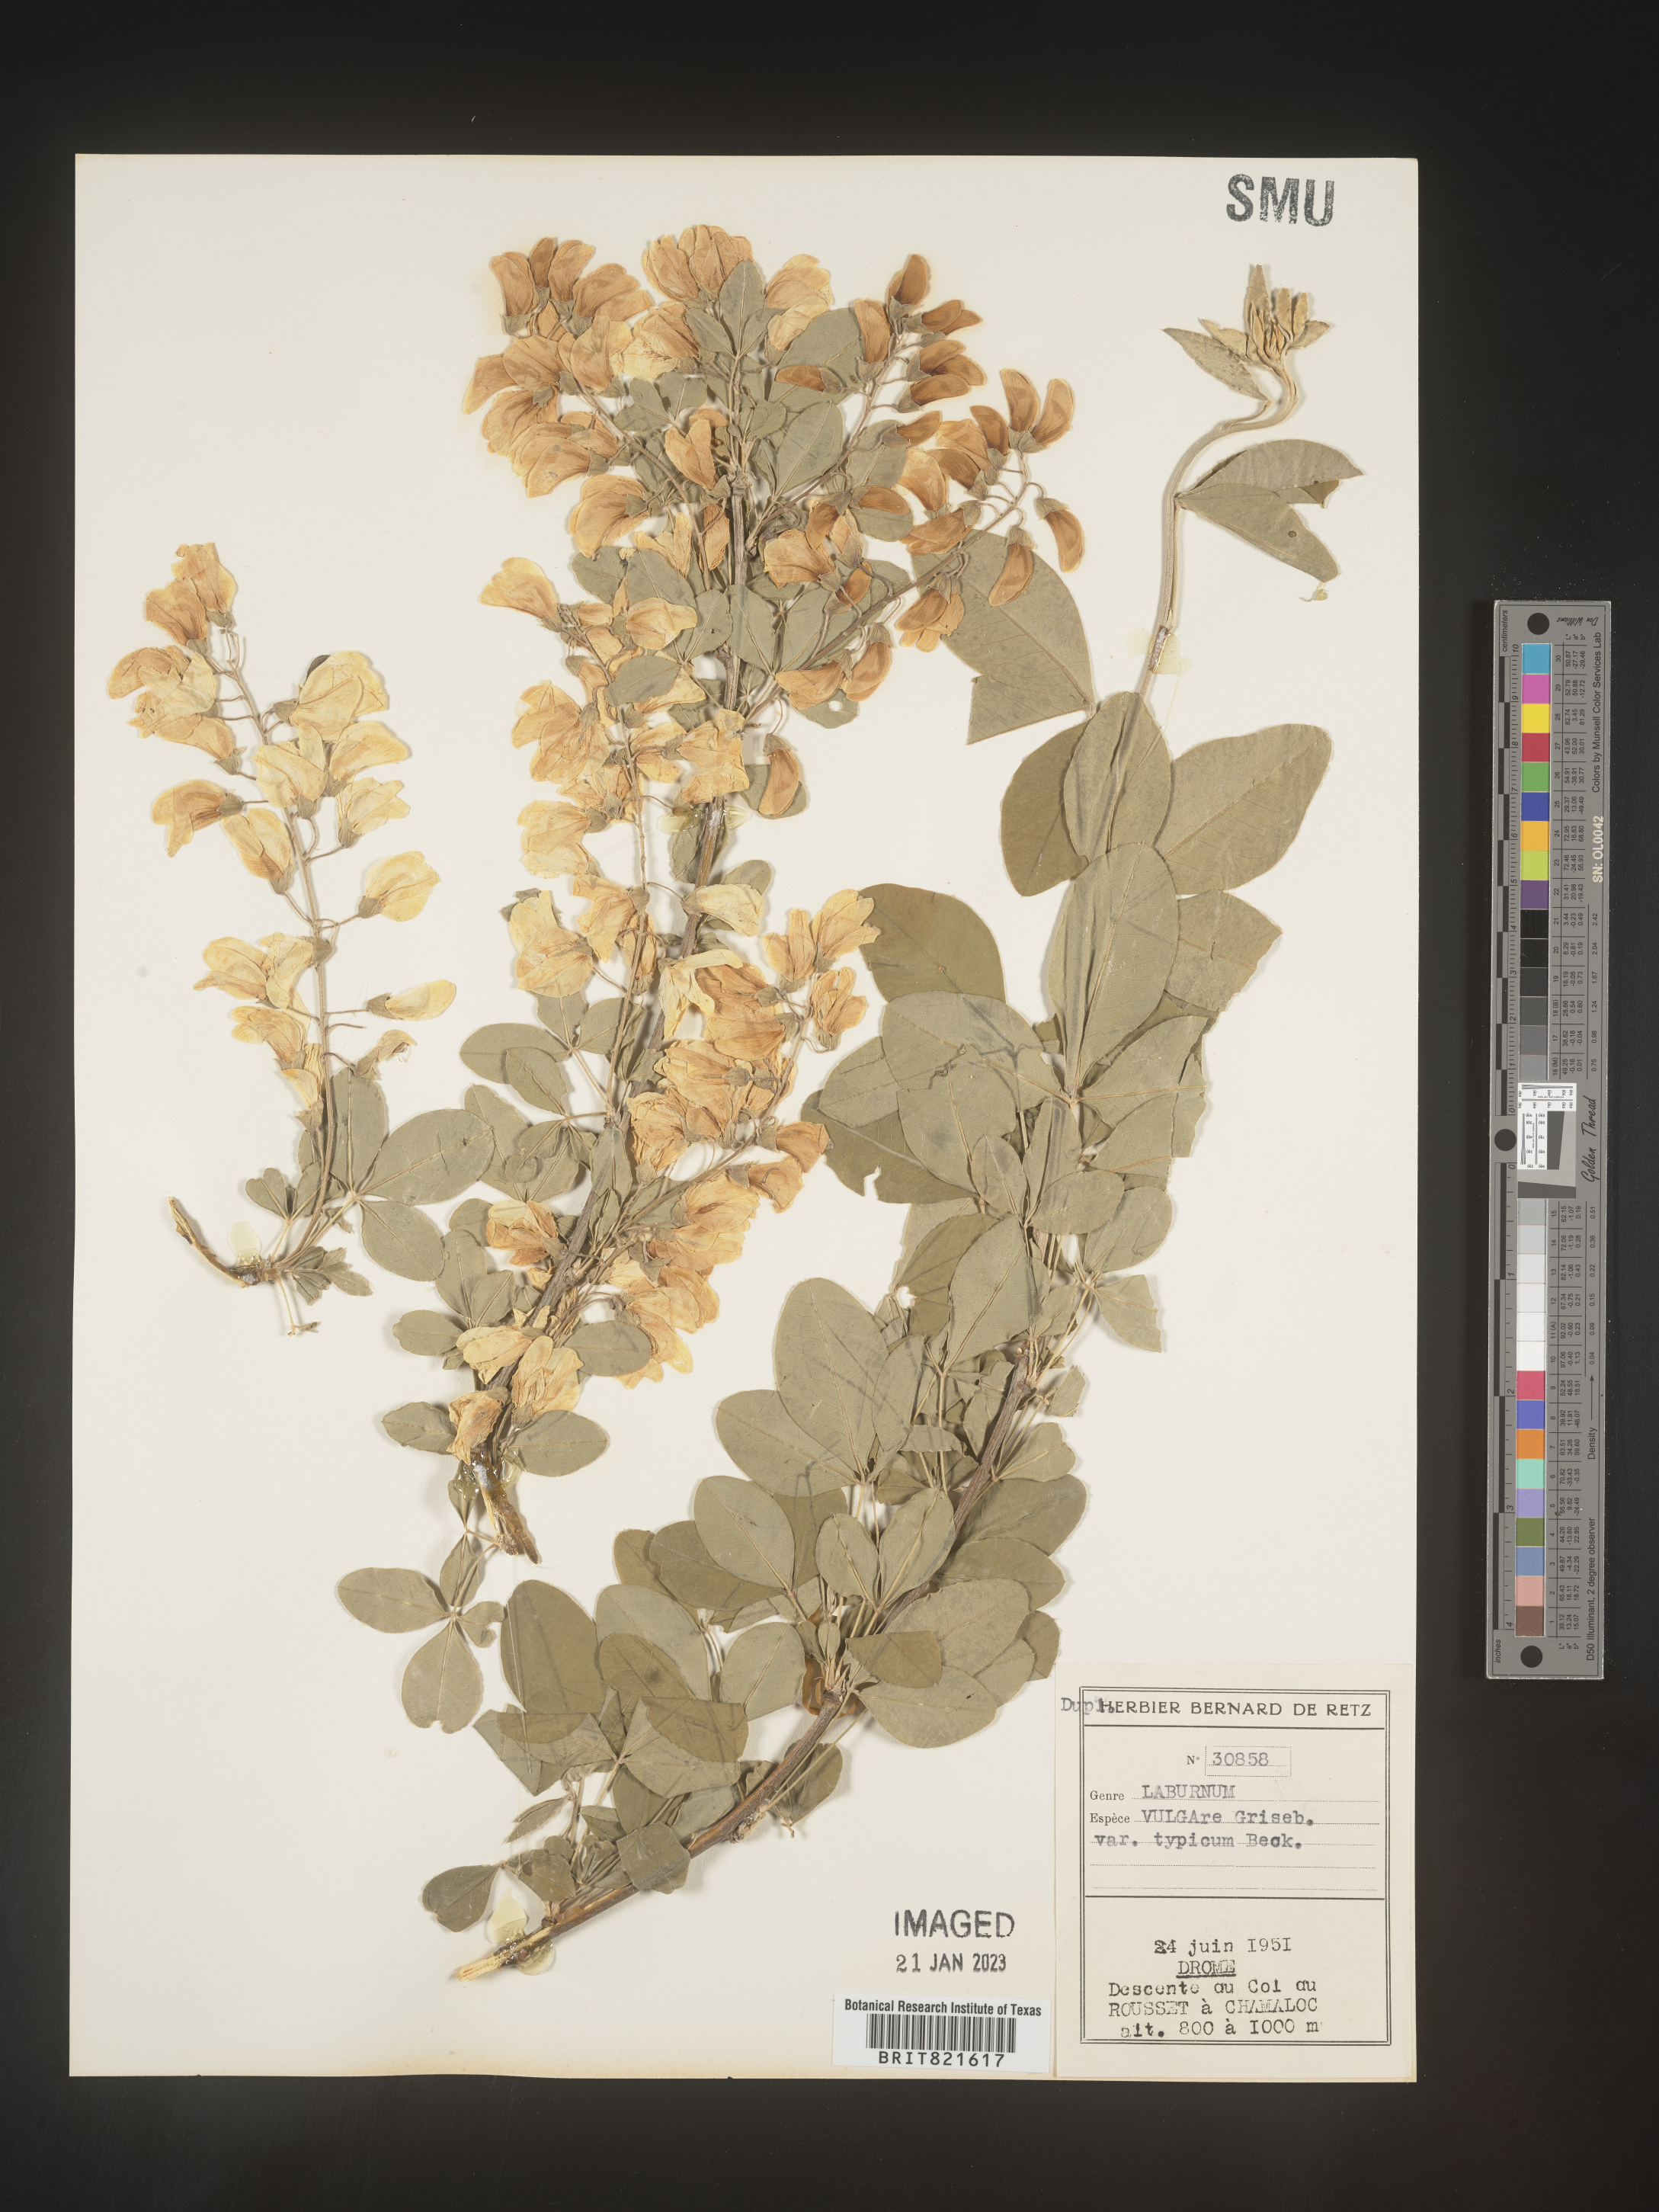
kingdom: Plantae
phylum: Tracheophyta
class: Magnoliopsida
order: Fabales
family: Fabaceae
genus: Laburnum
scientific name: Laburnum
